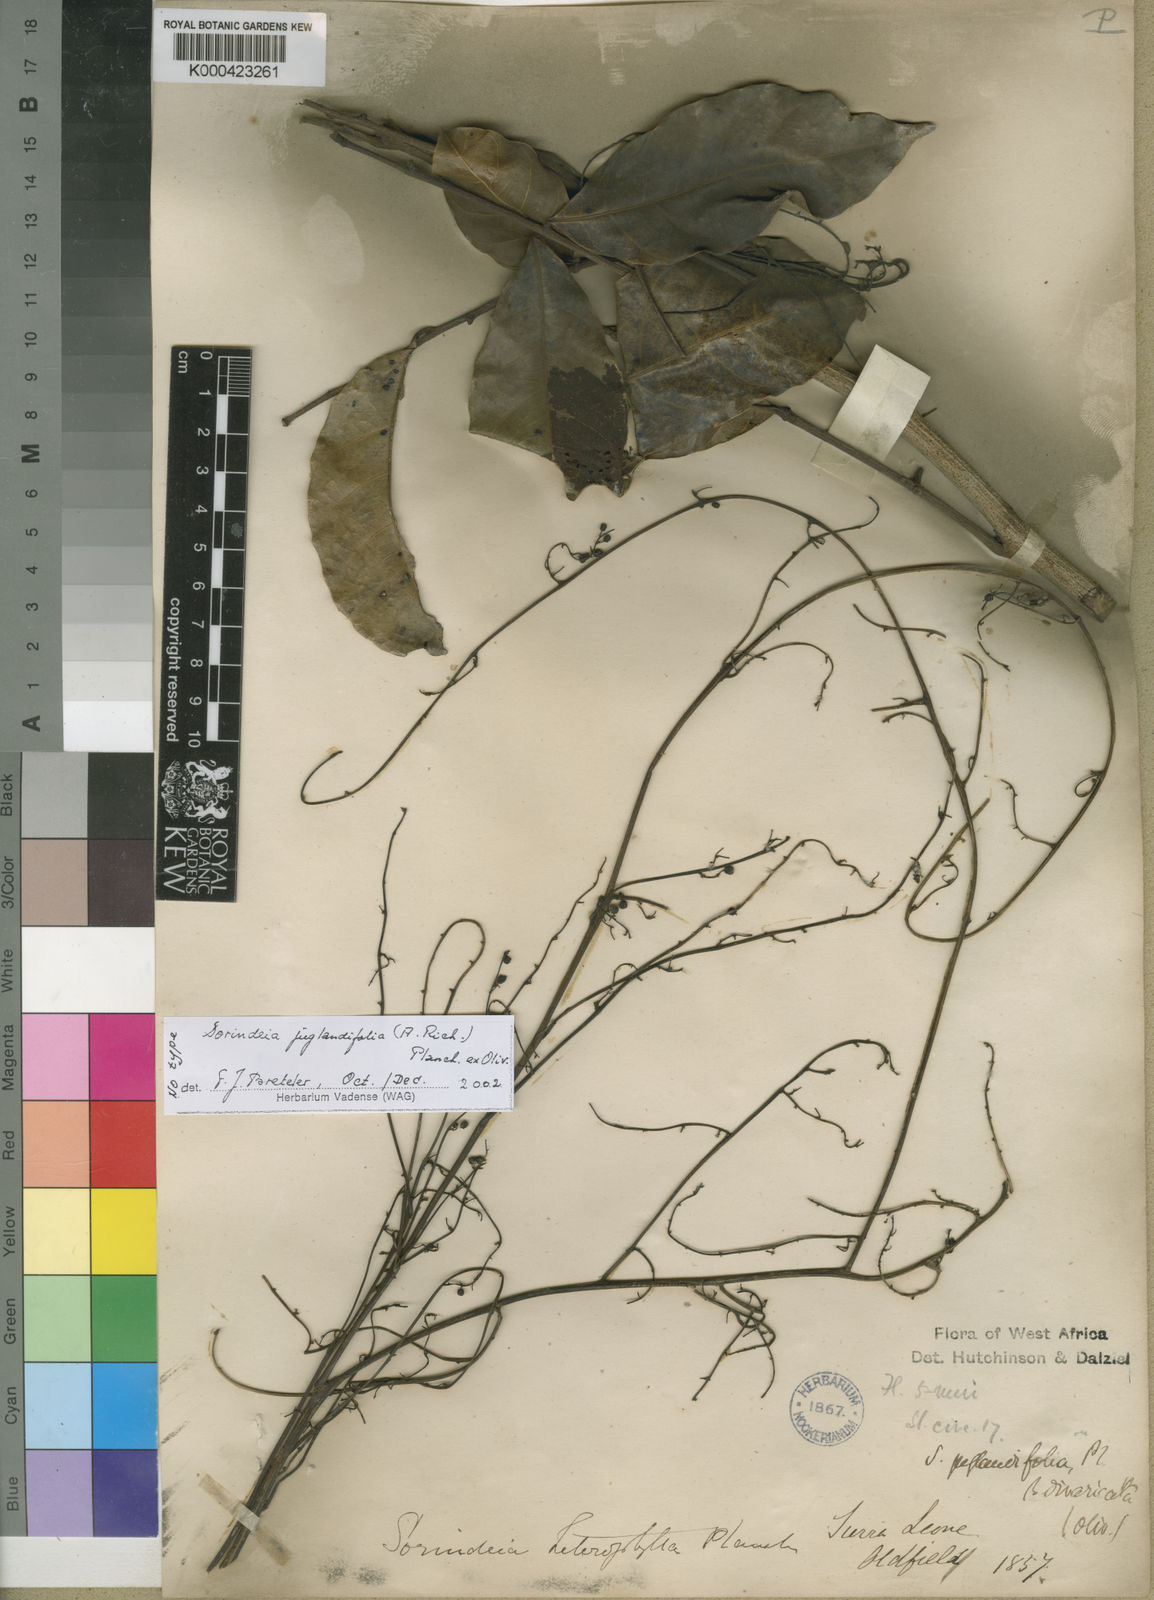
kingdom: Plantae
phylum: Tracheophyta
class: Magnoliopsida
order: Sapindales
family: Anacardiaceae
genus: Sorindeia
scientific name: Sorindeia juglandifolia
